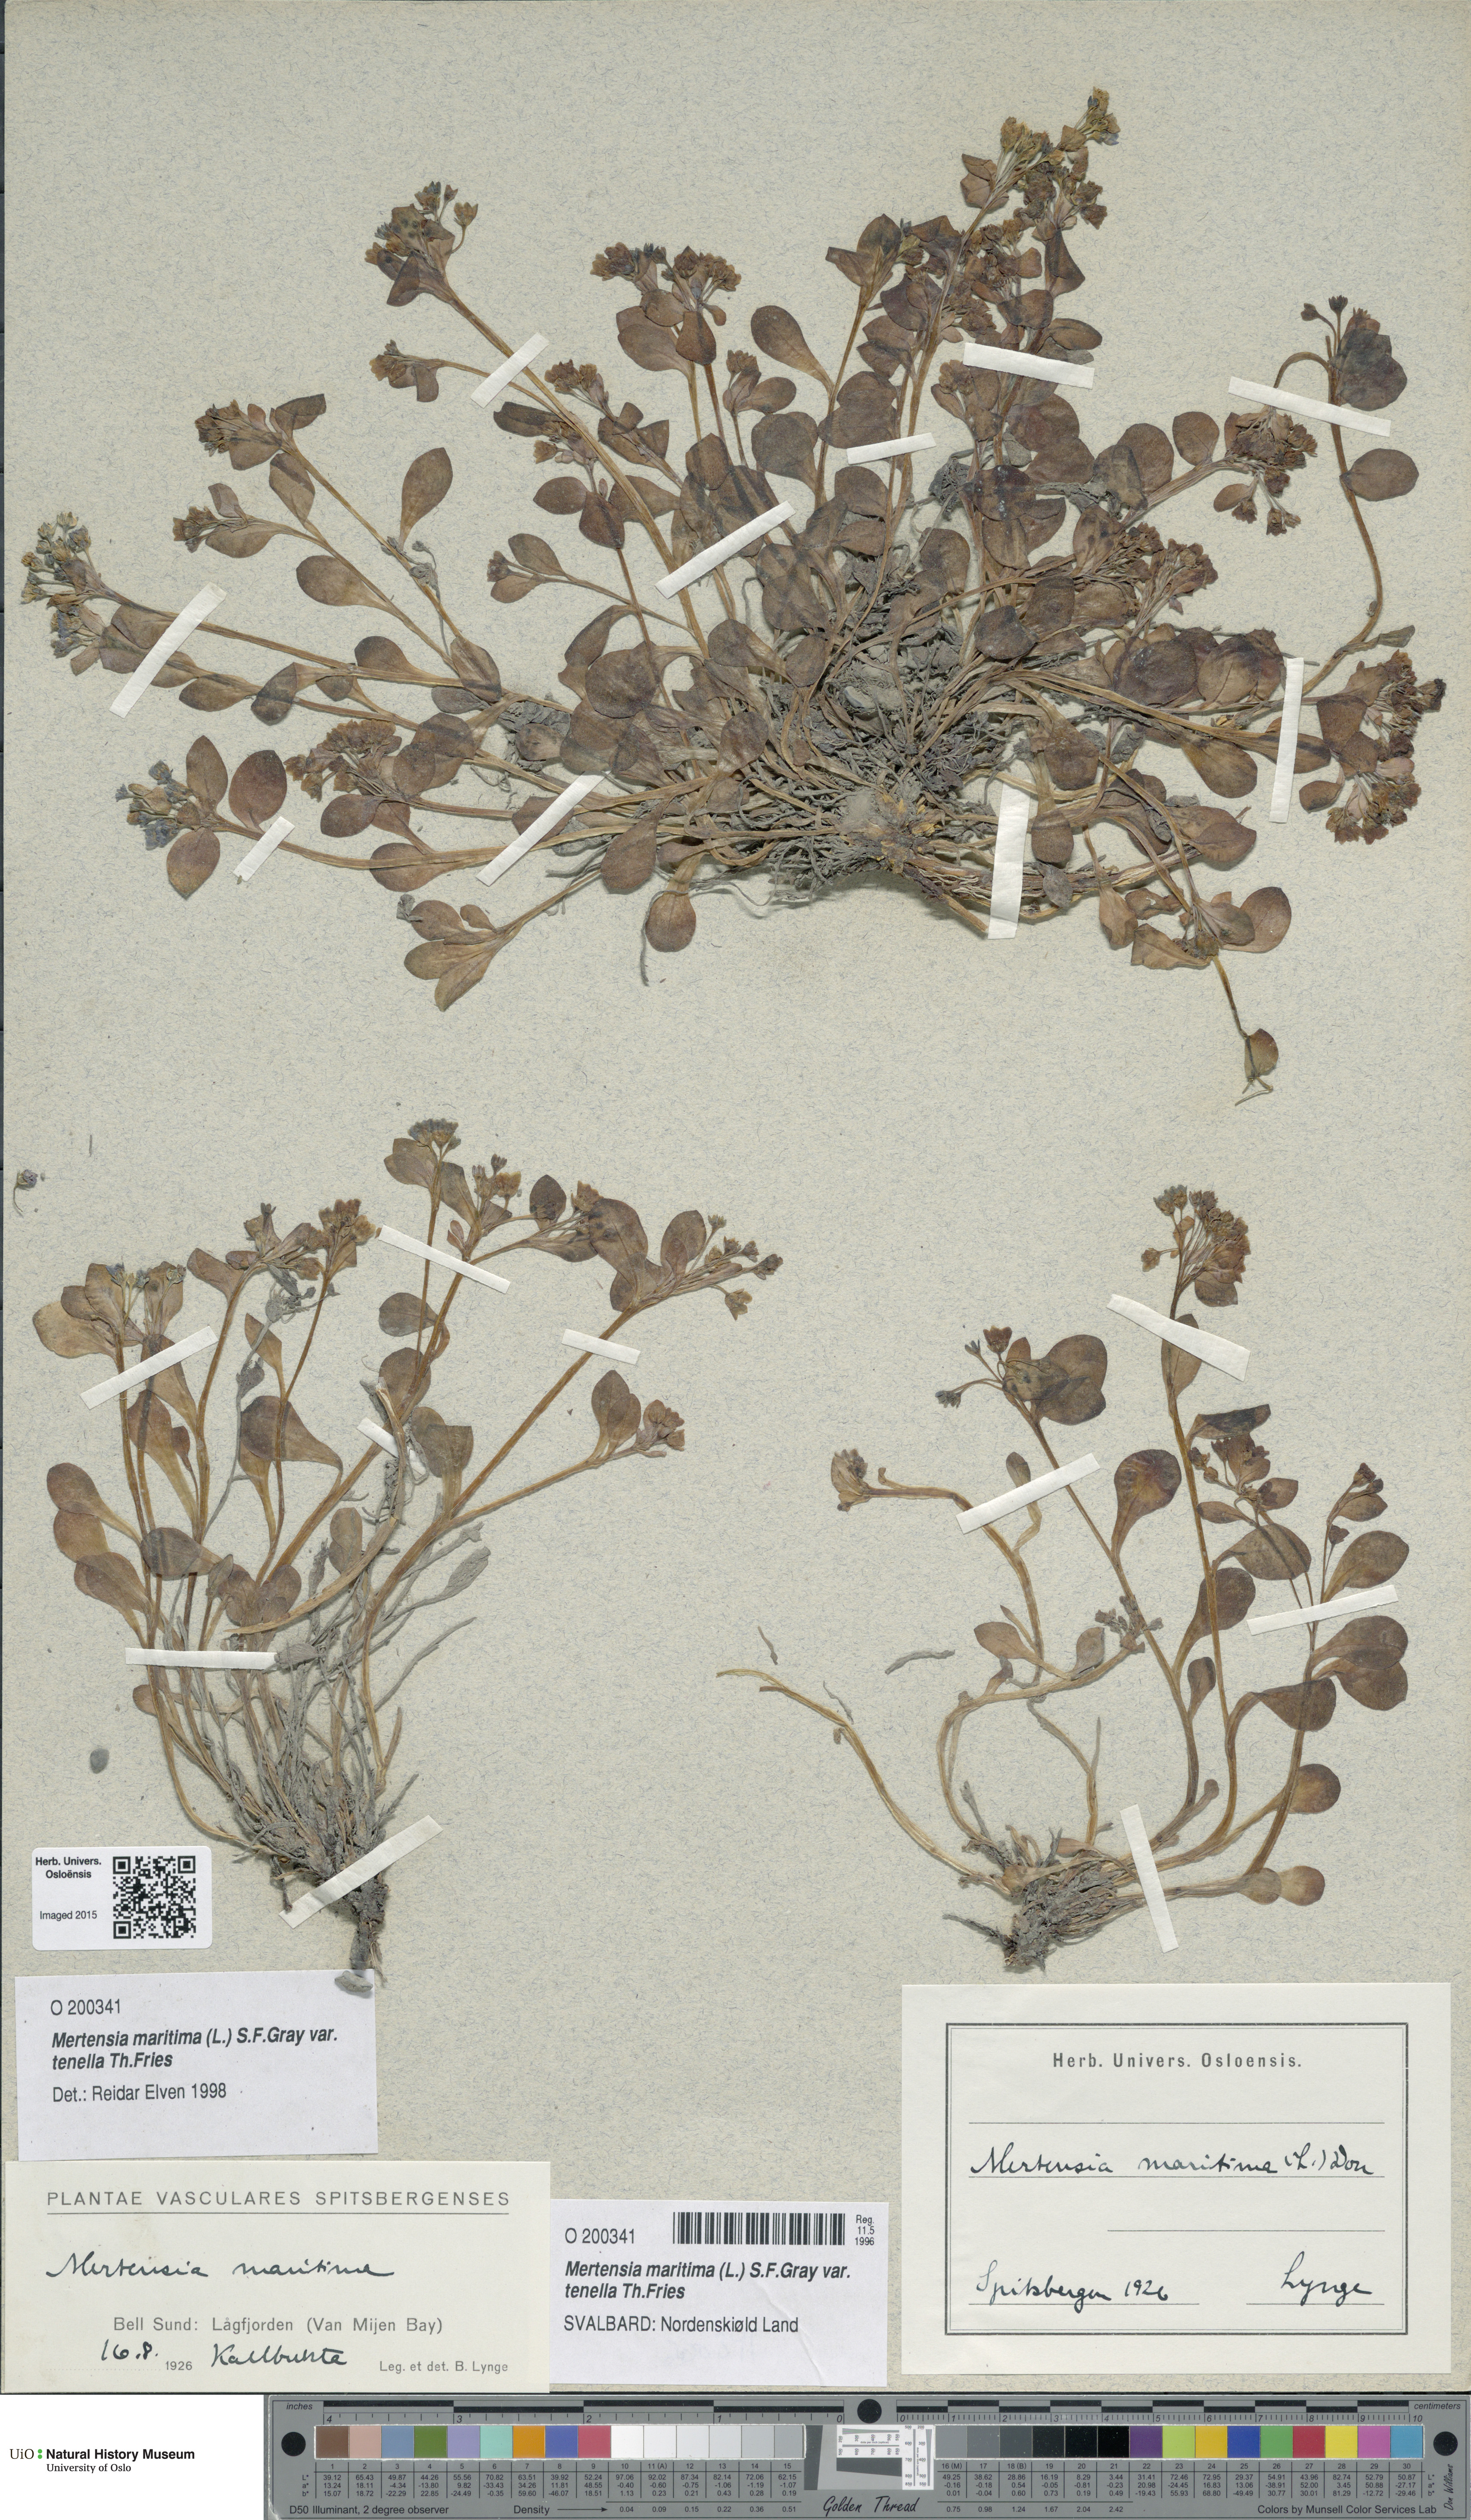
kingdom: Plantae
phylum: Tracheophyta
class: Magnoliopsida
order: Boraginales
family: Boraginaceae
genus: Mertensia
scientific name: Mertensia maritima
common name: Oysterplant
